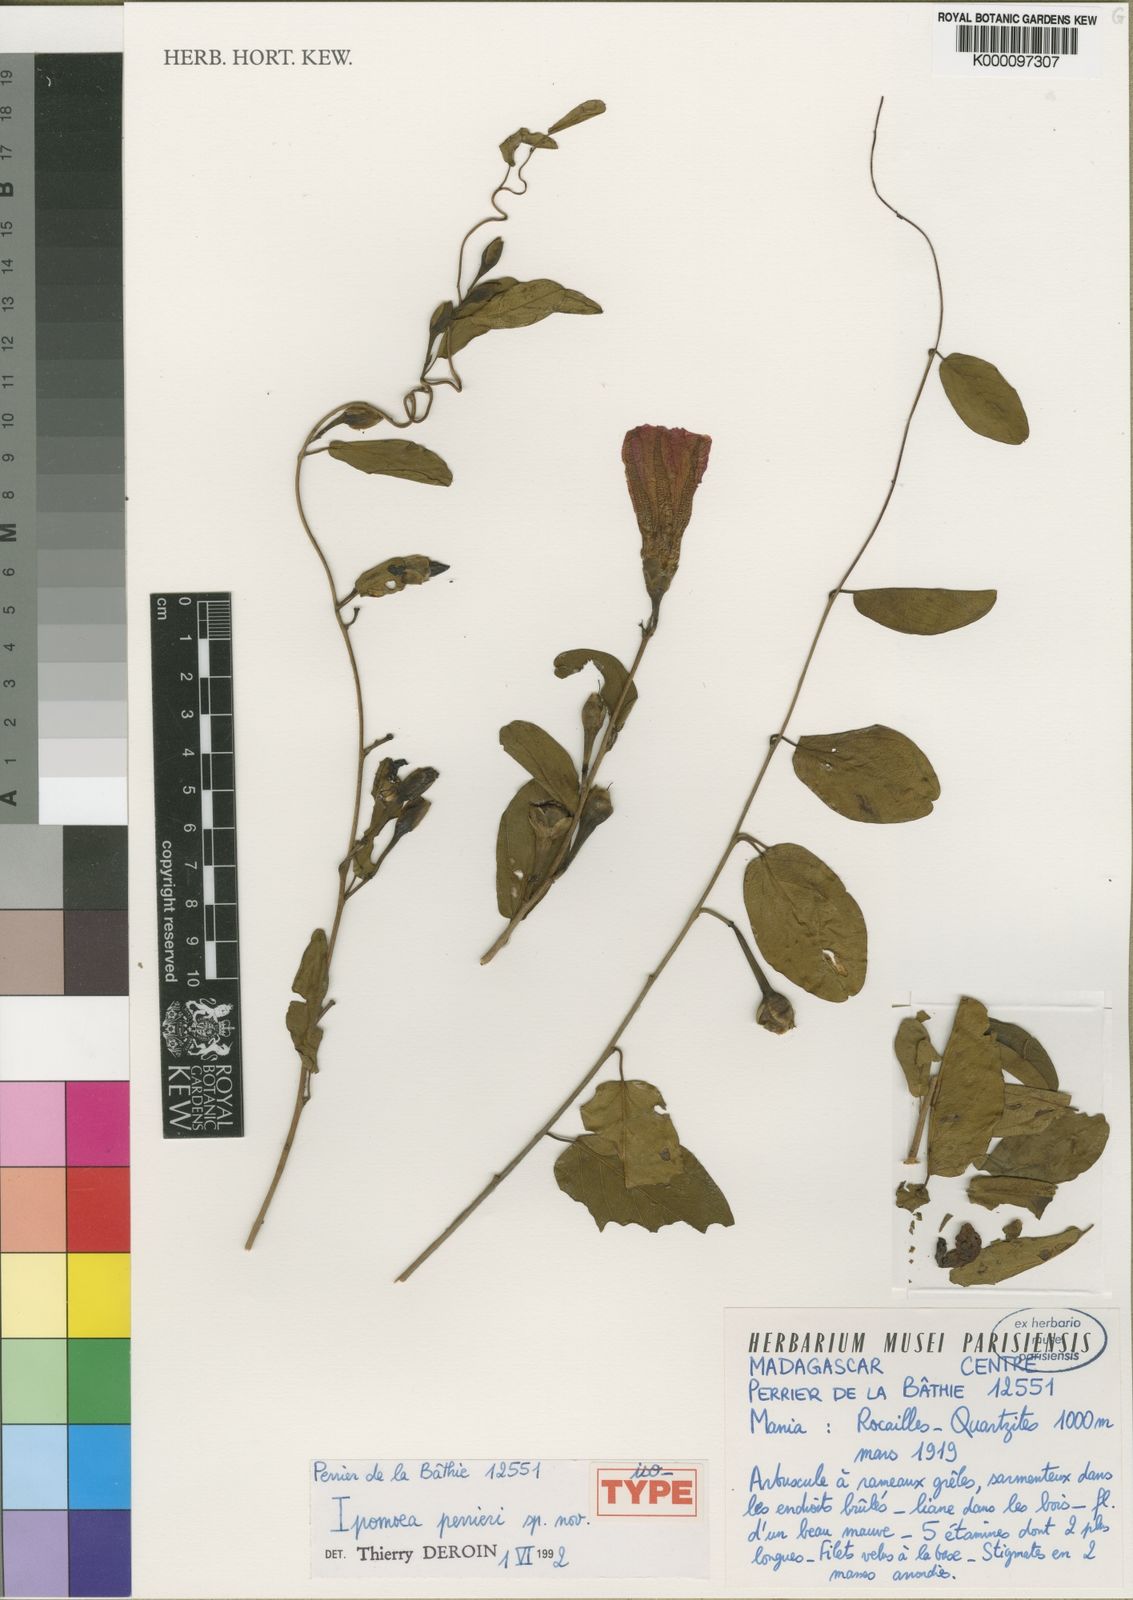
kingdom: Plantae
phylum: Tracheophyta
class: Magnoliopsida
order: Solanales
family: Convolvulaceae
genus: Ipomoea
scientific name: Ipomoea perrieri
